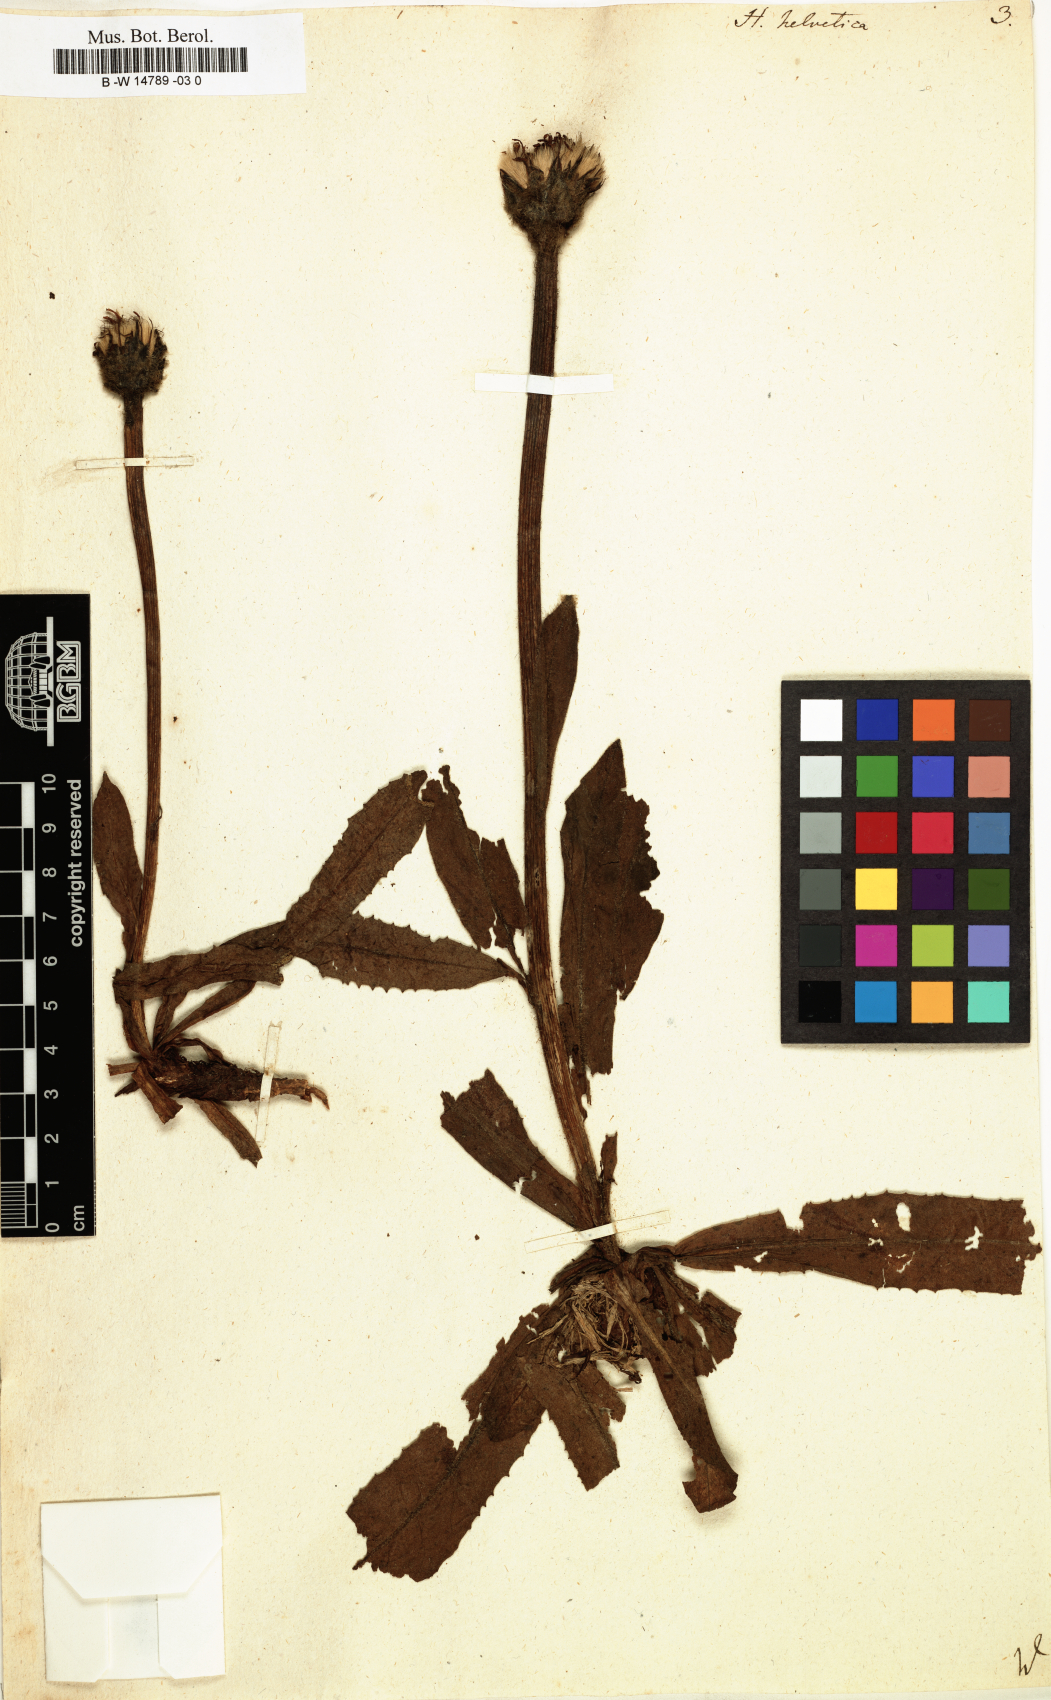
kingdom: Plantae
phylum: Tracheophyta
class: Magnoliopsida
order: Asterales
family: Asteraceae
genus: Trommsdorffia
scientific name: Trommsdorffia uniflora
